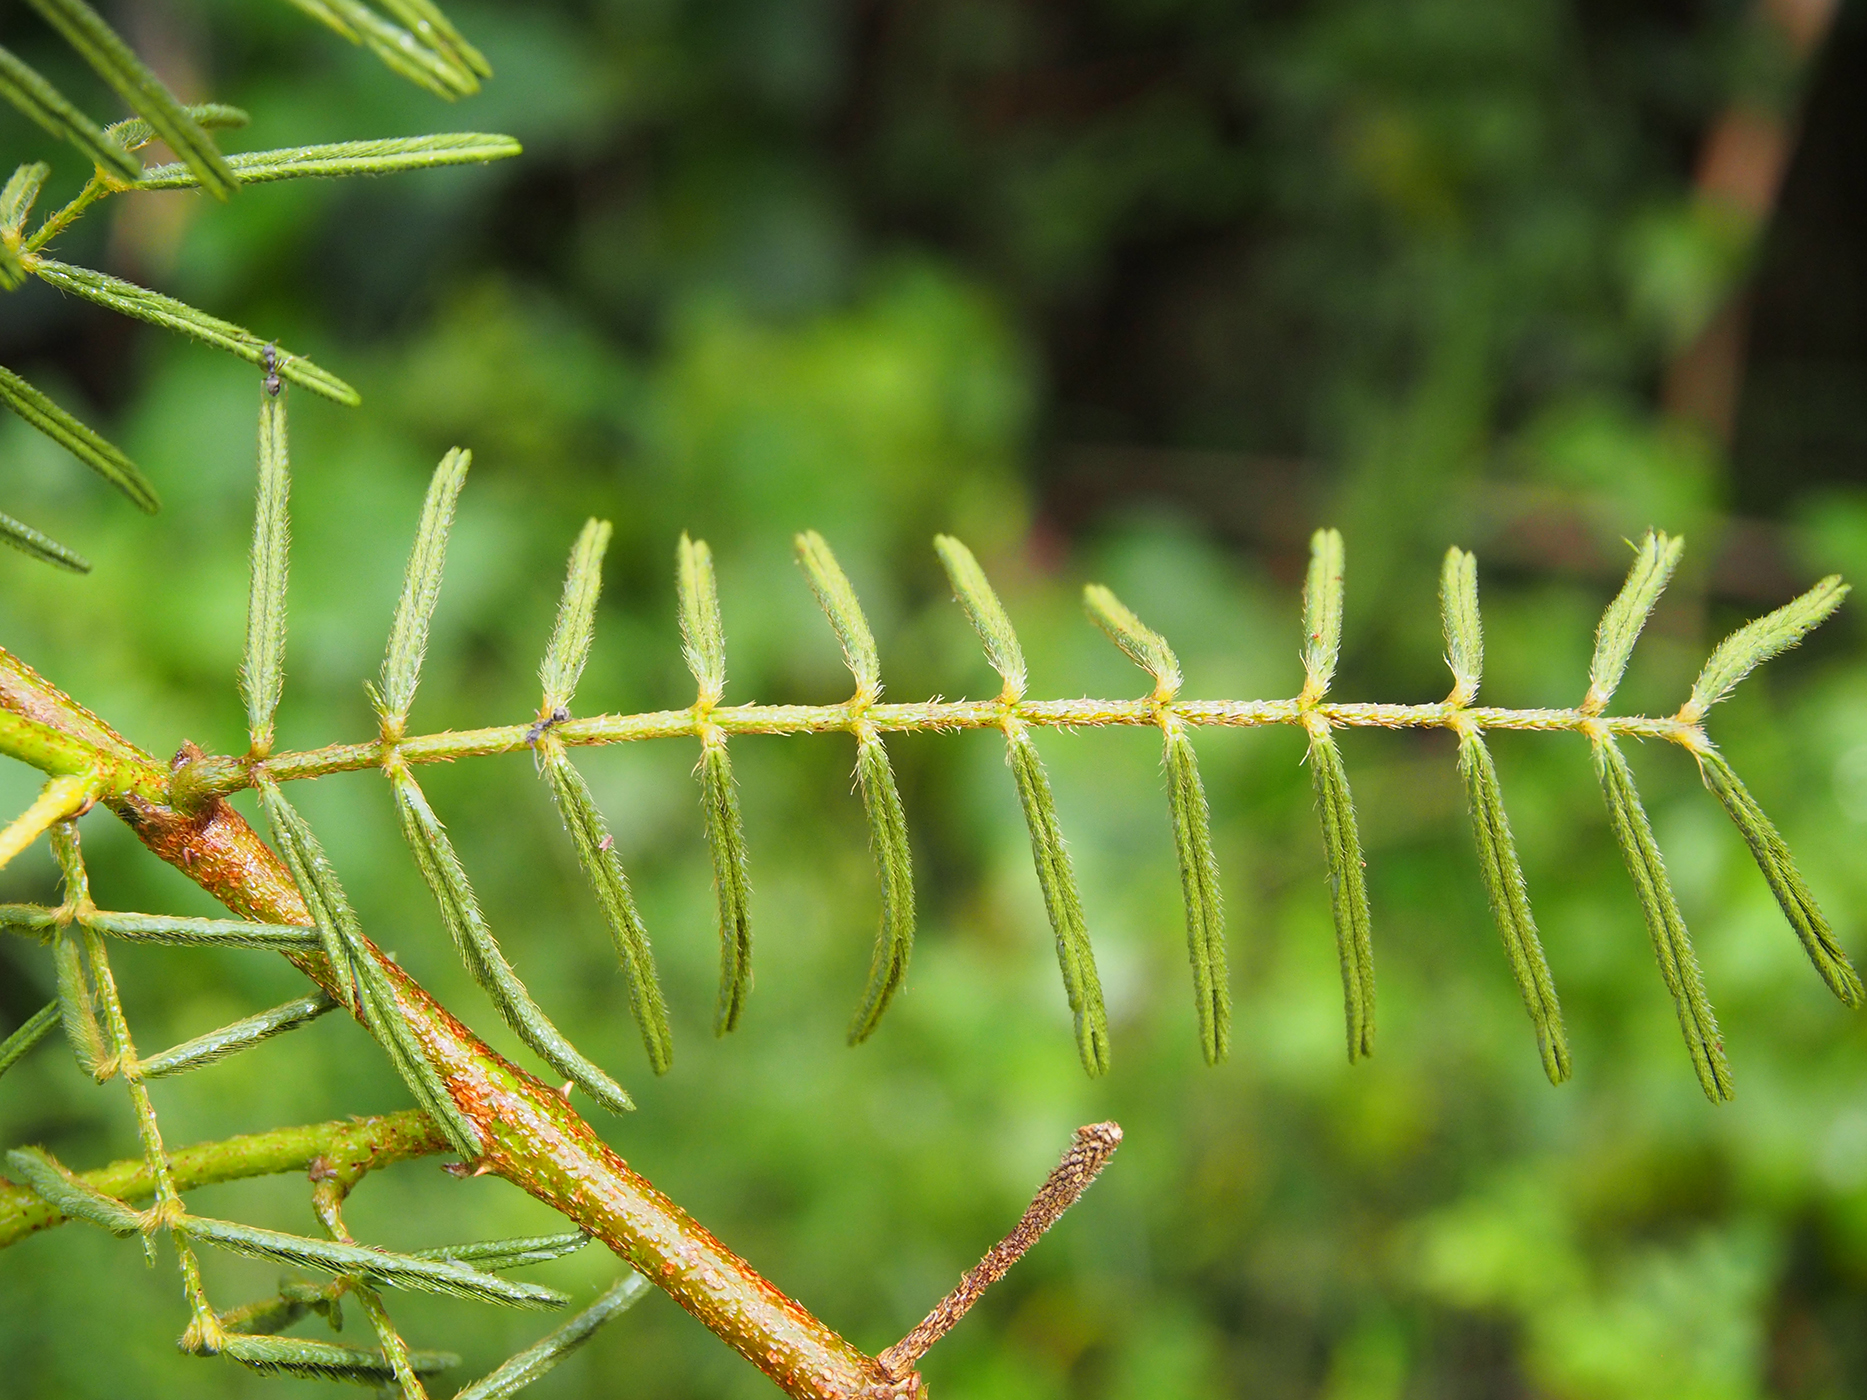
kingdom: Plantae
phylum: Tracheophyta
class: Magnoliopsida
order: Fabales
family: Fabaceae
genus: Mimosa
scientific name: Mimosa pigra
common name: Black mimosa
